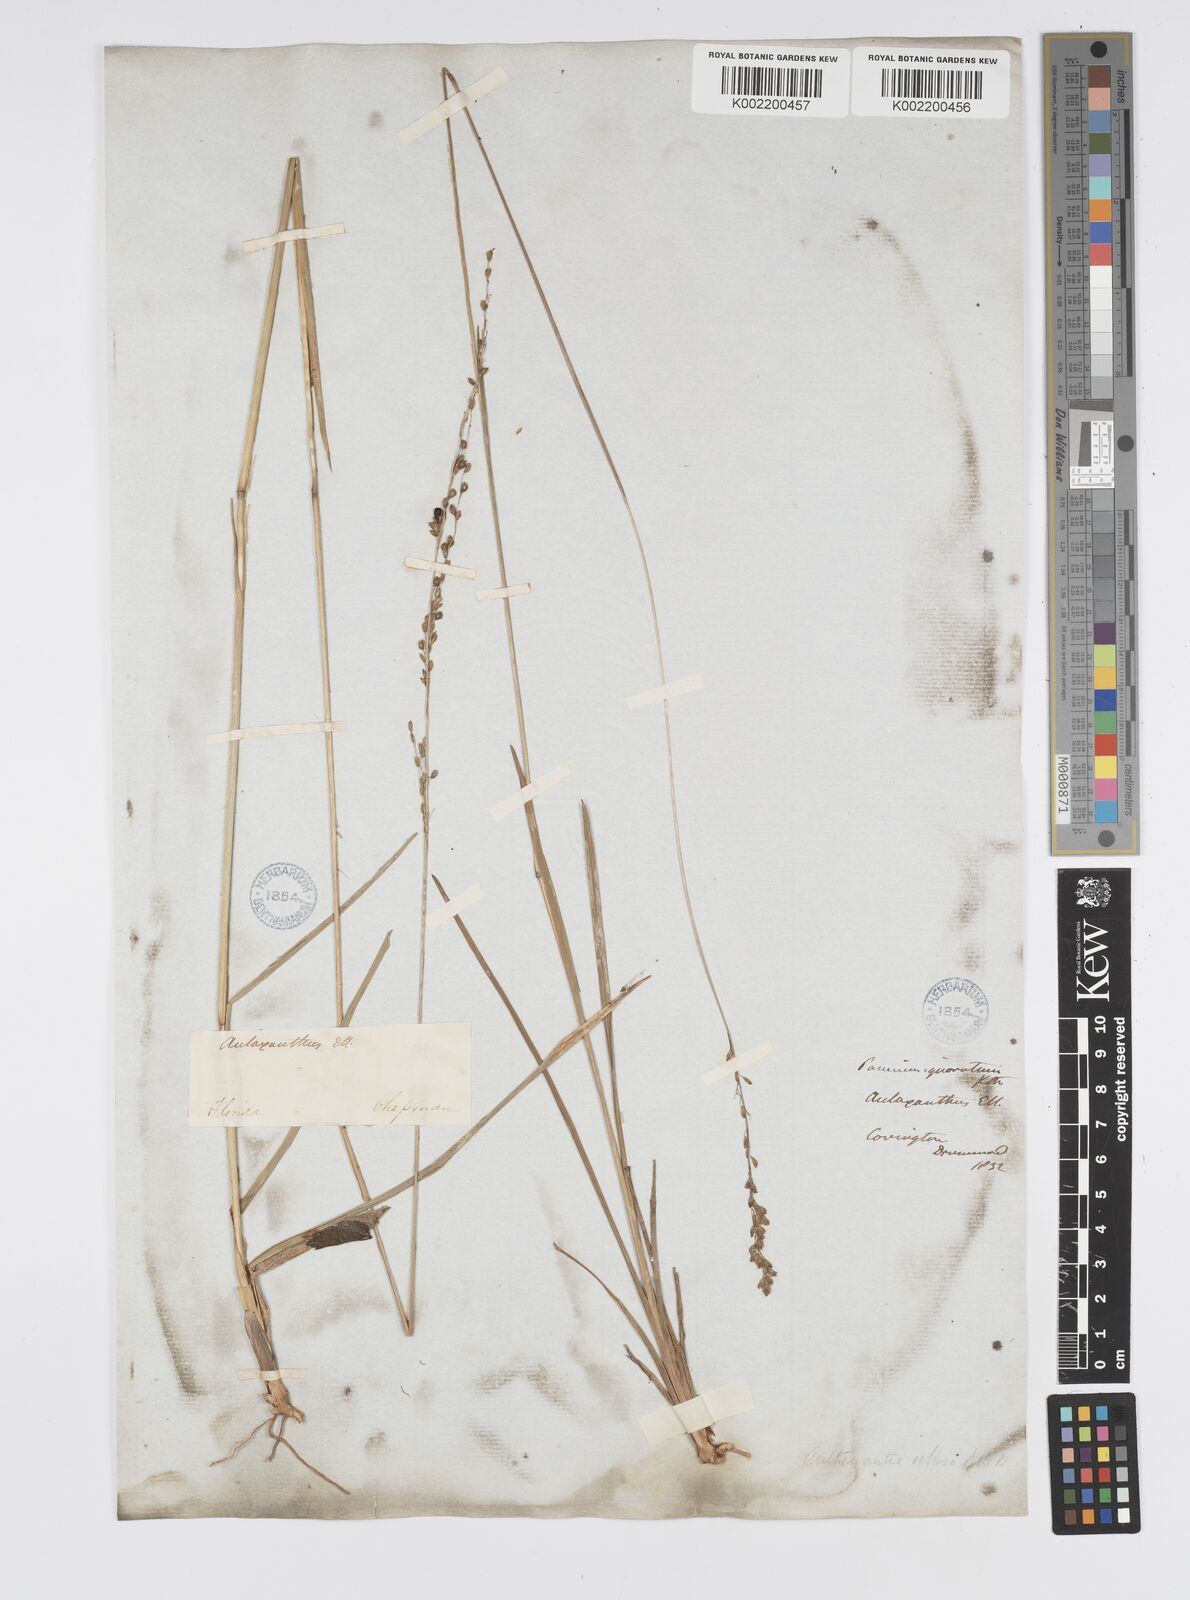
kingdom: Plantae
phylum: Tracheophyta
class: Liliopsida
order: Poales
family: Poaceae
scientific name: Poaceae
